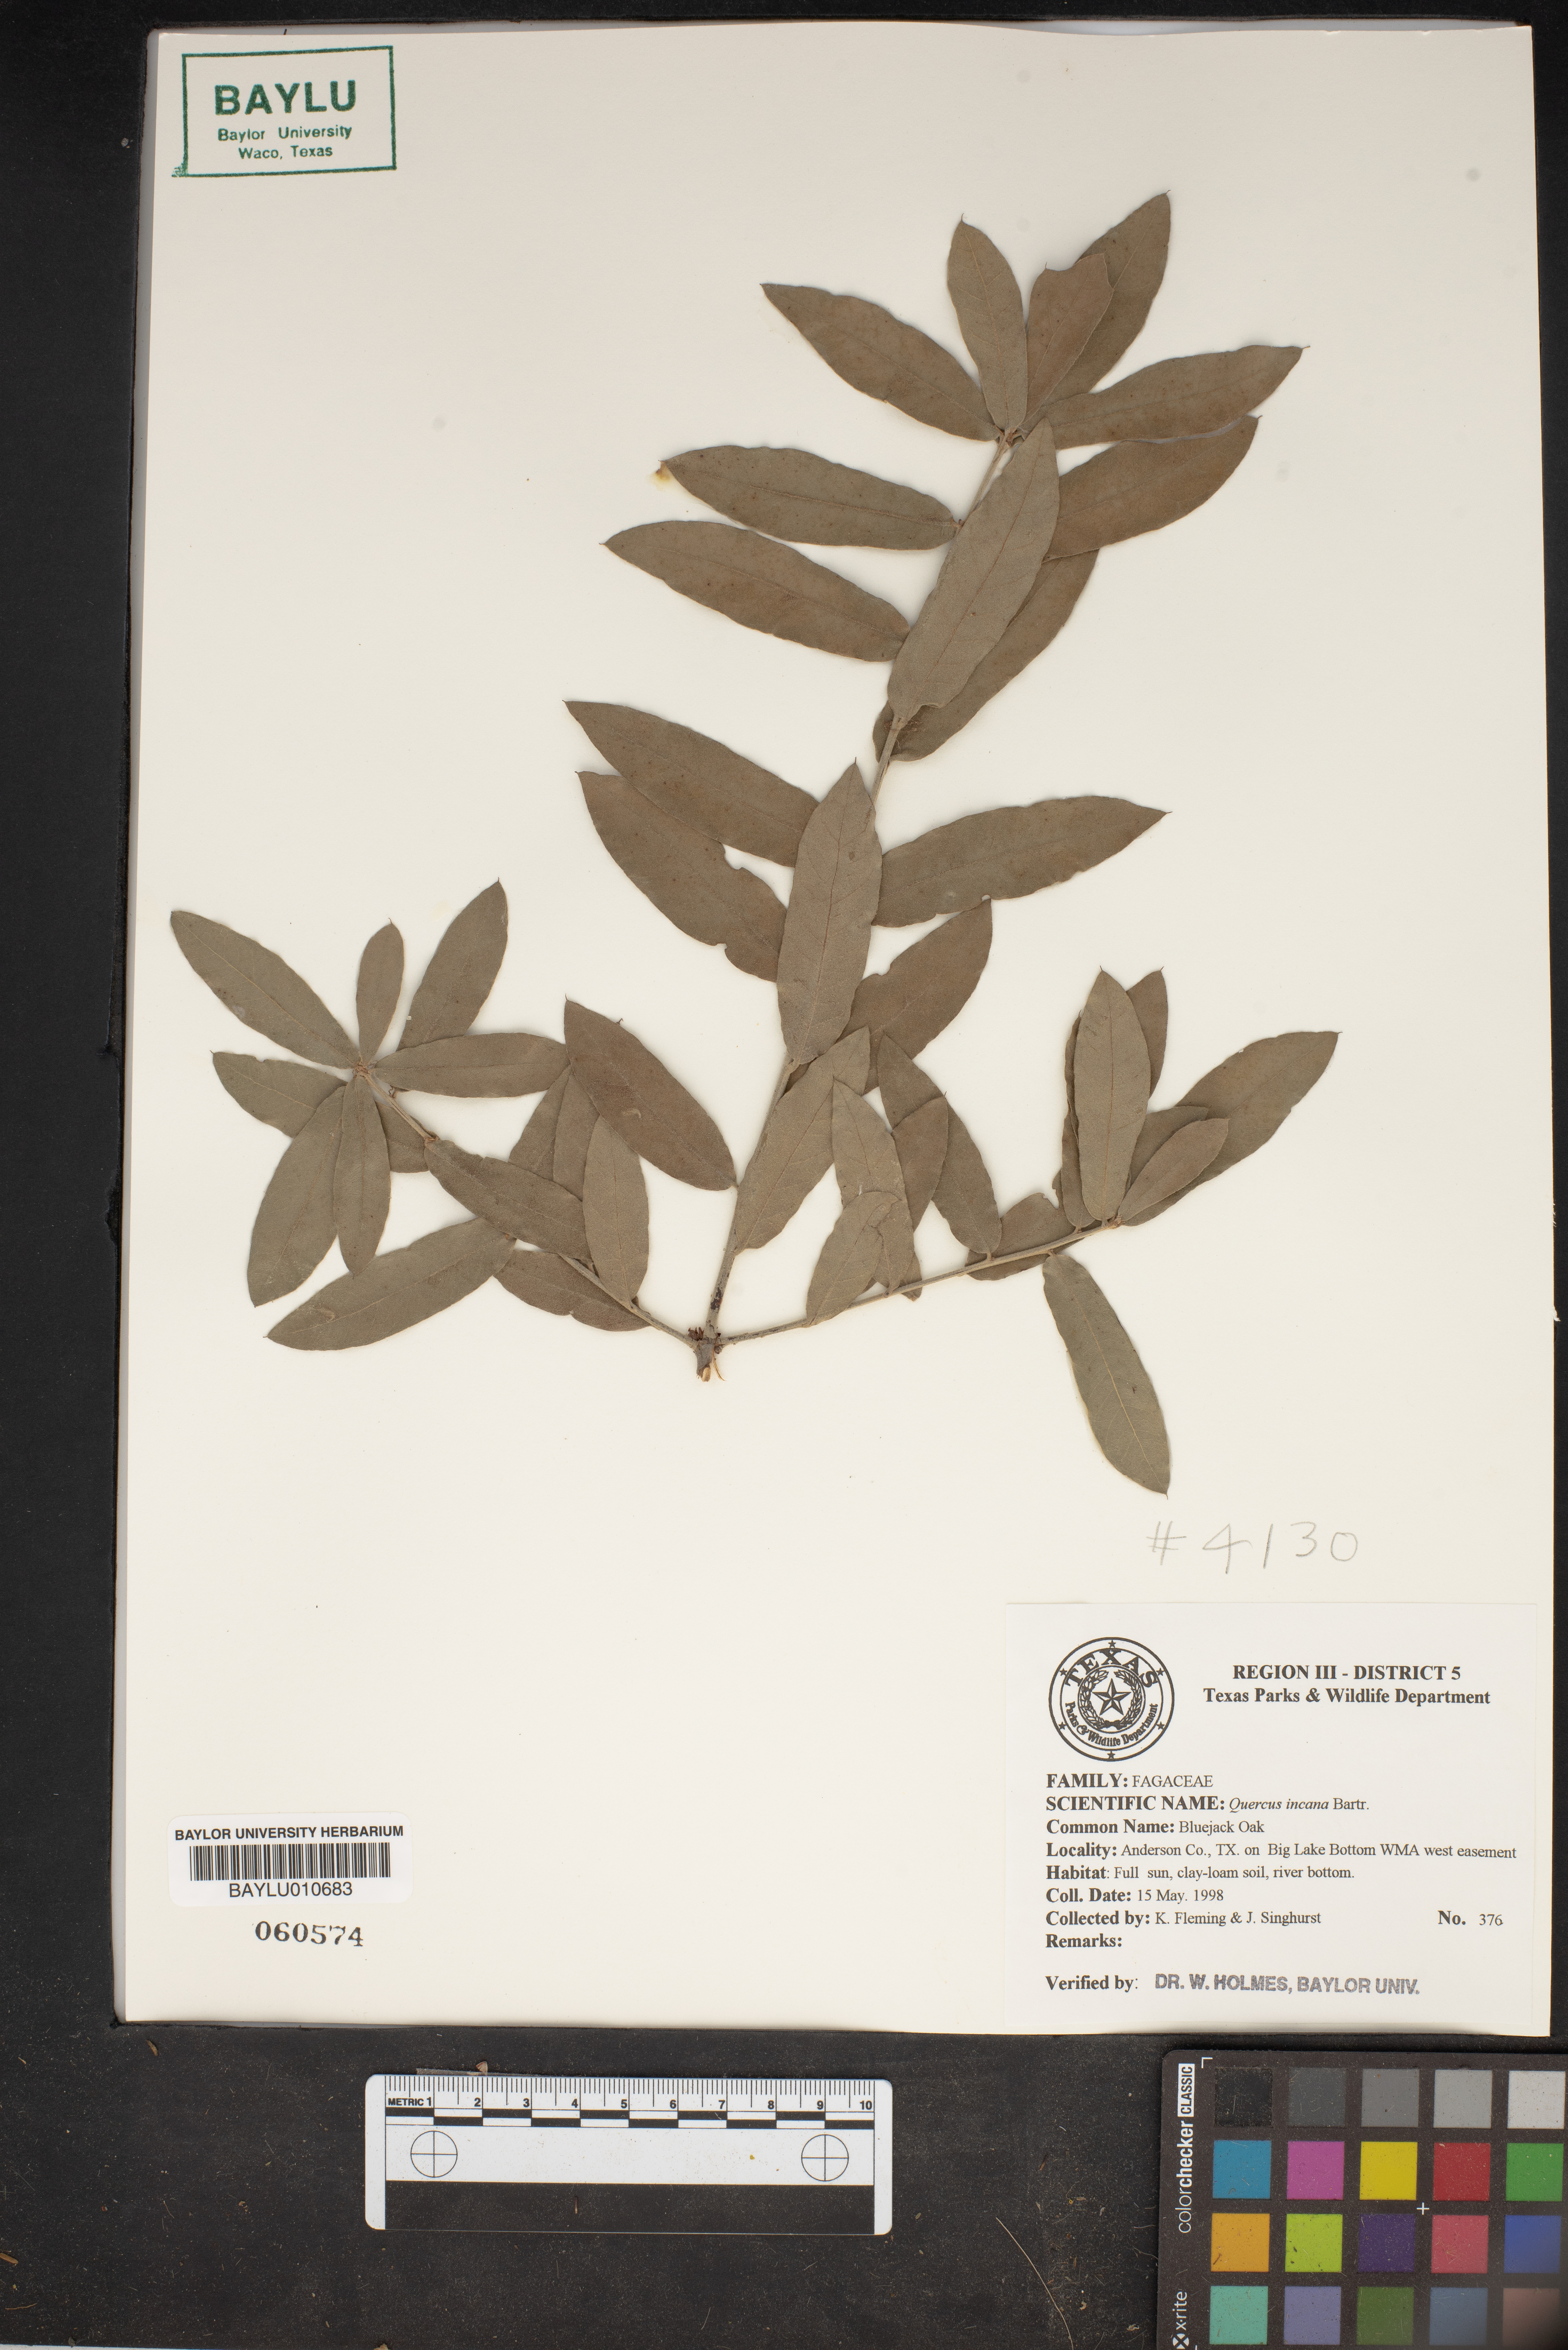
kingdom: Plantae
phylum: Tracheophyta
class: Magnoliopsida
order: Fagales
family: Fagaceae
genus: Quercus
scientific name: Quercus incana
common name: Bluejack oak
